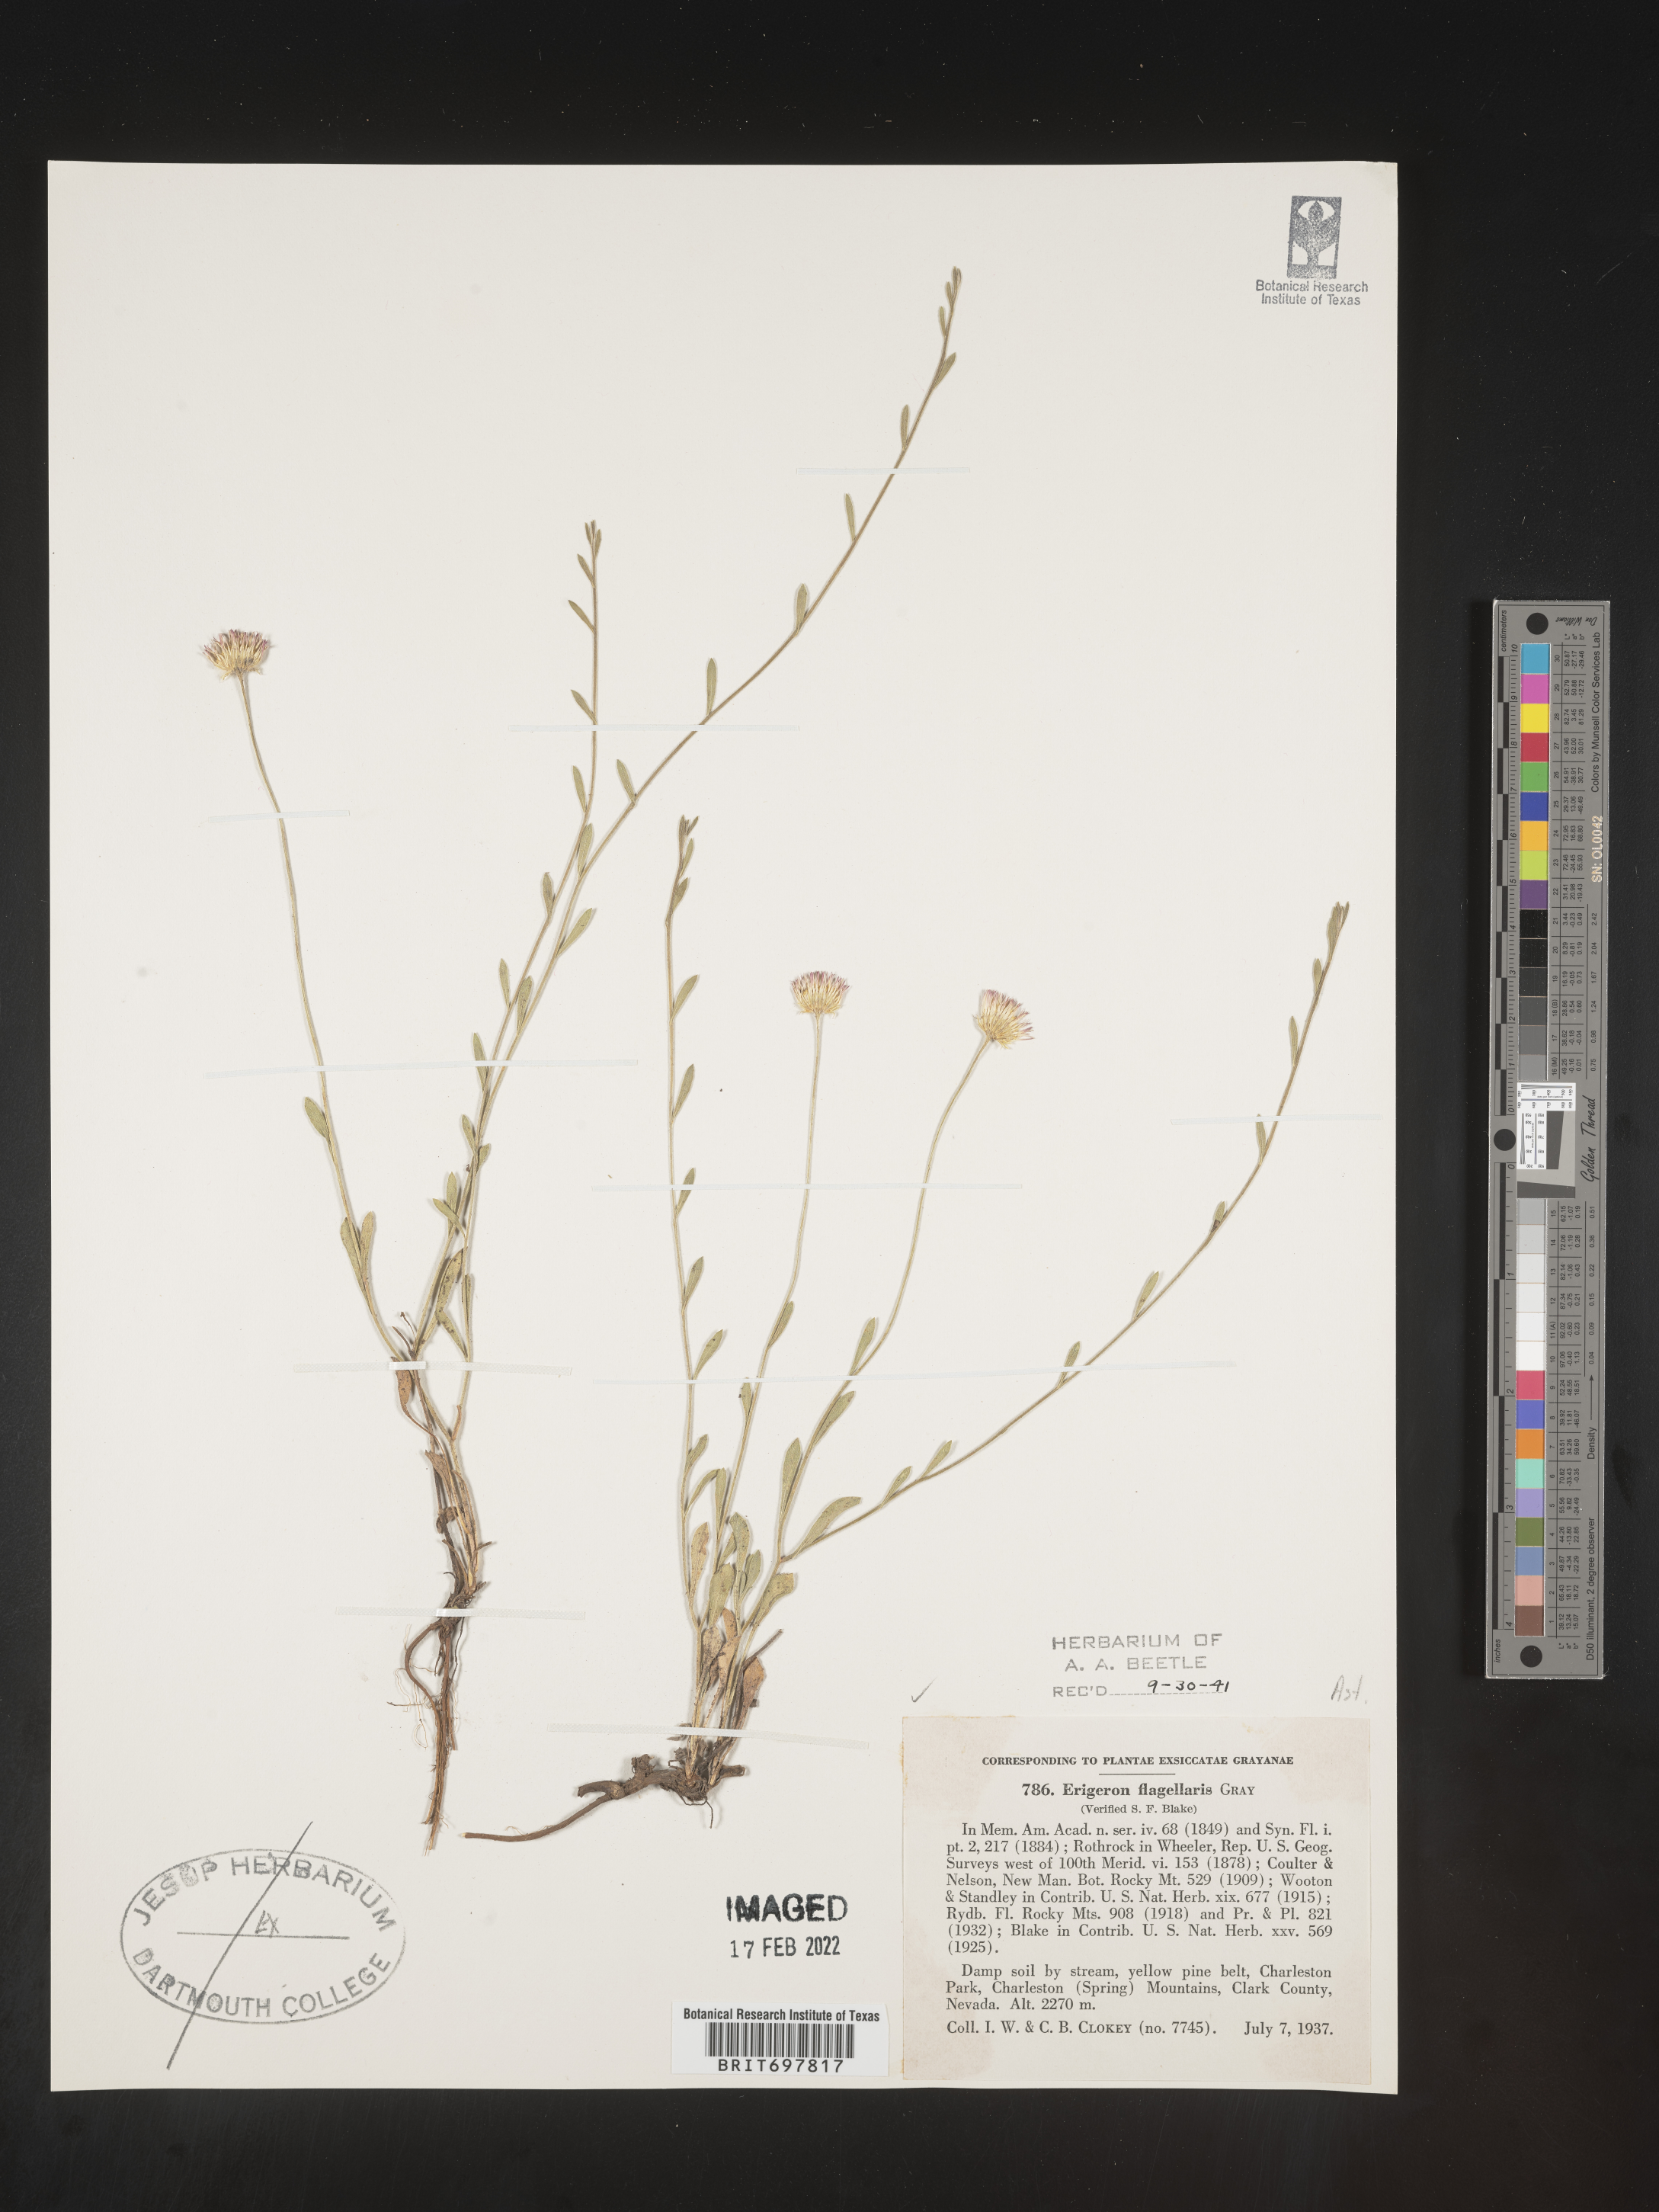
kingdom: Plantae
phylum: Tracheophyta
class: Magnoliopsida
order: Asterales
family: Asteraceae
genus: Erigeron
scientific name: Erigeron flagellaris
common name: Running fleabane
